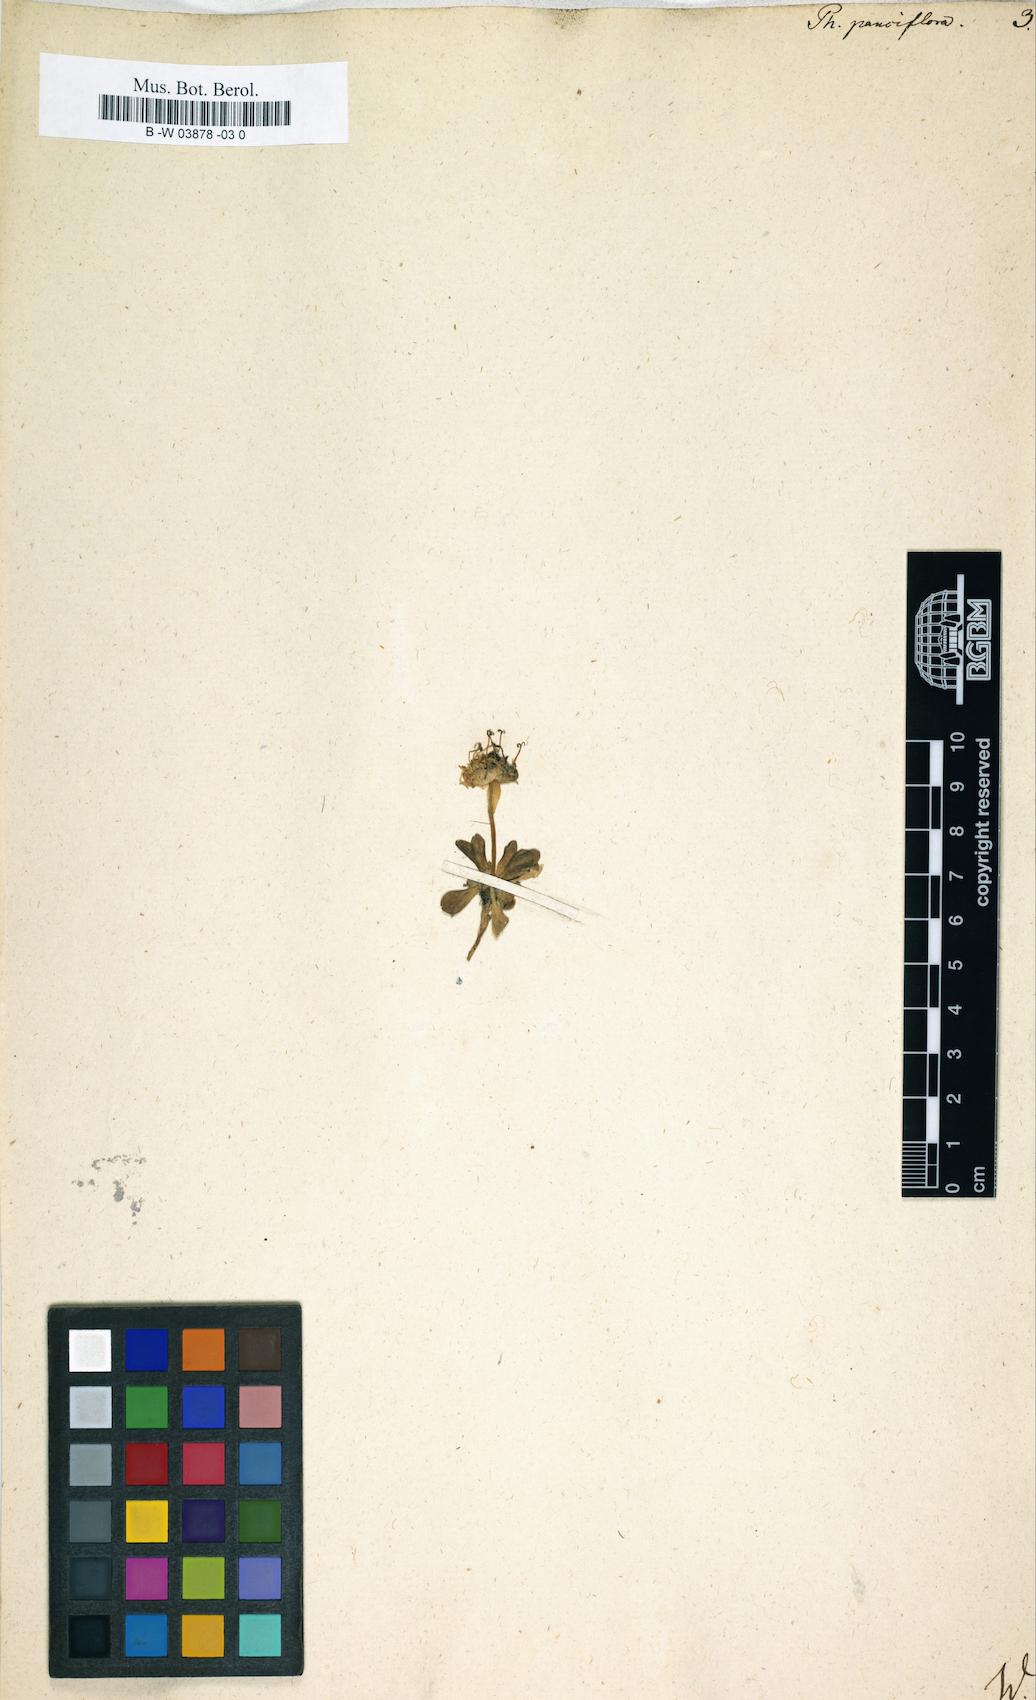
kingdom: Plantae
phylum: Tracheophyta
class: Magnoliopsida
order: Asterales
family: Campanulaceae
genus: Phyteuma
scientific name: Phyteuma globulariifolium
